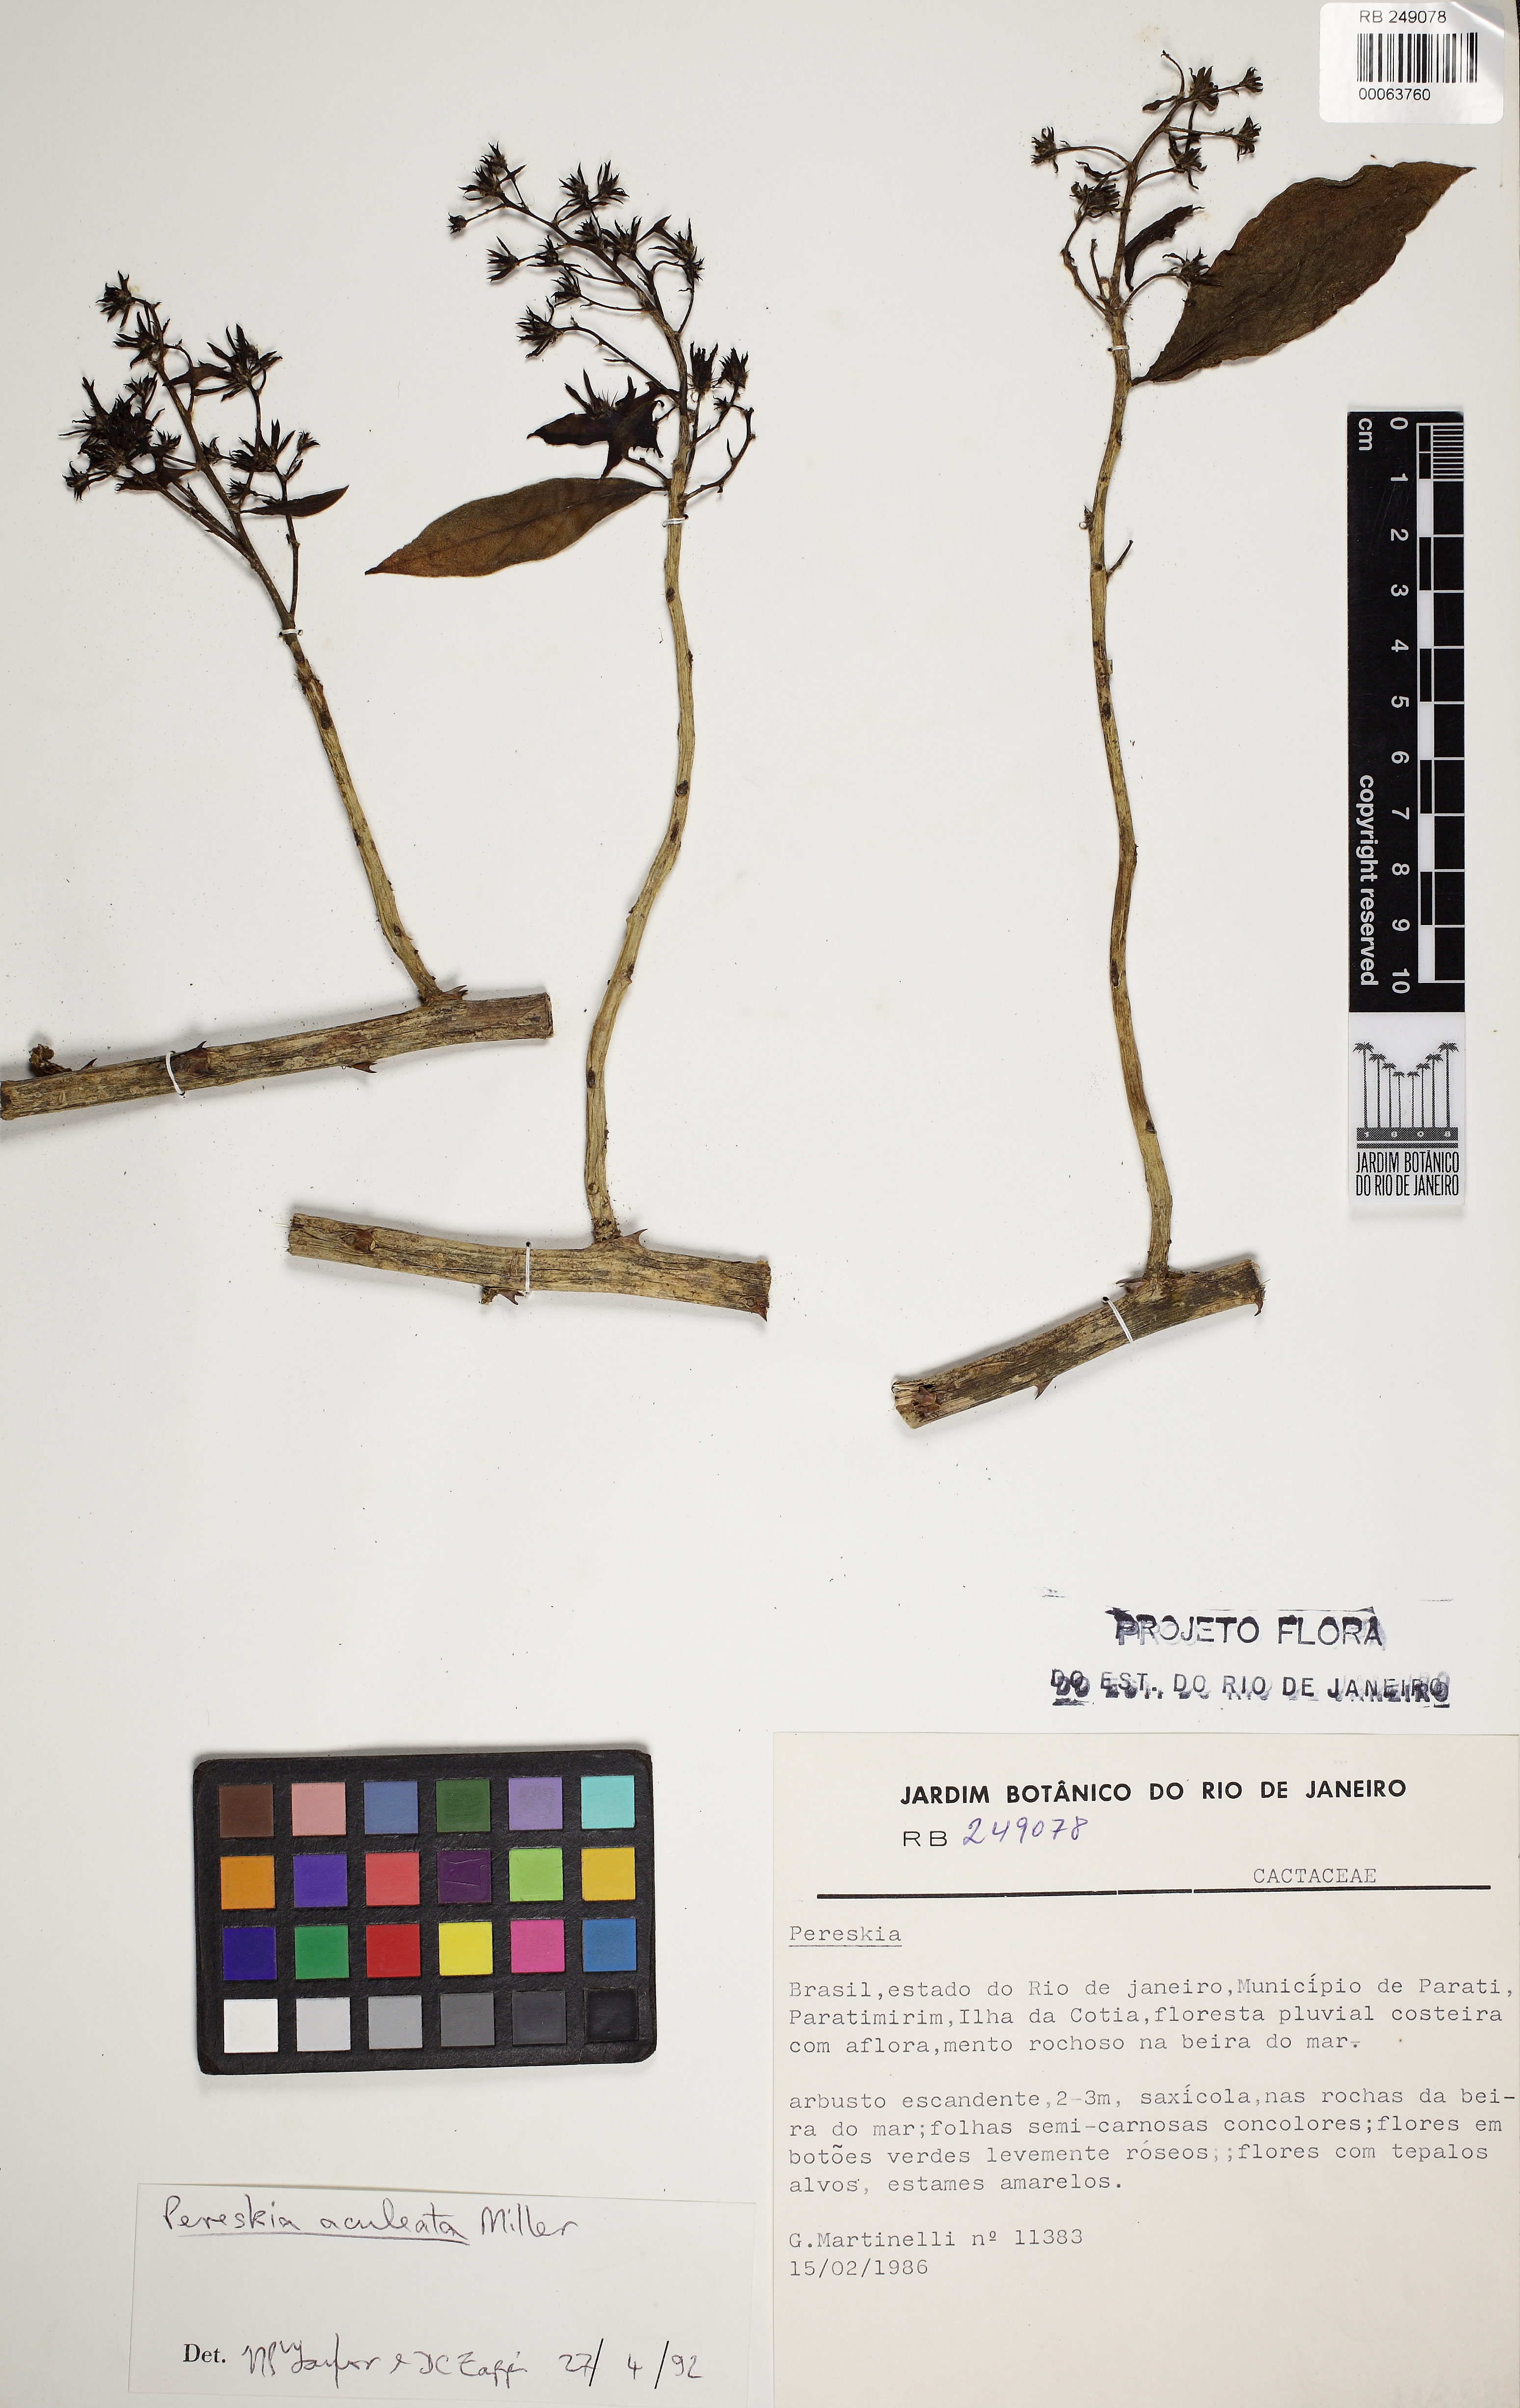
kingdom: Plantae
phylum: Tracheophyta
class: Magnoliopsida
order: Caryophyllales
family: Cactaceae
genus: Pereskia
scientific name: Pereskia aculeata
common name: Barbados gooseberry
